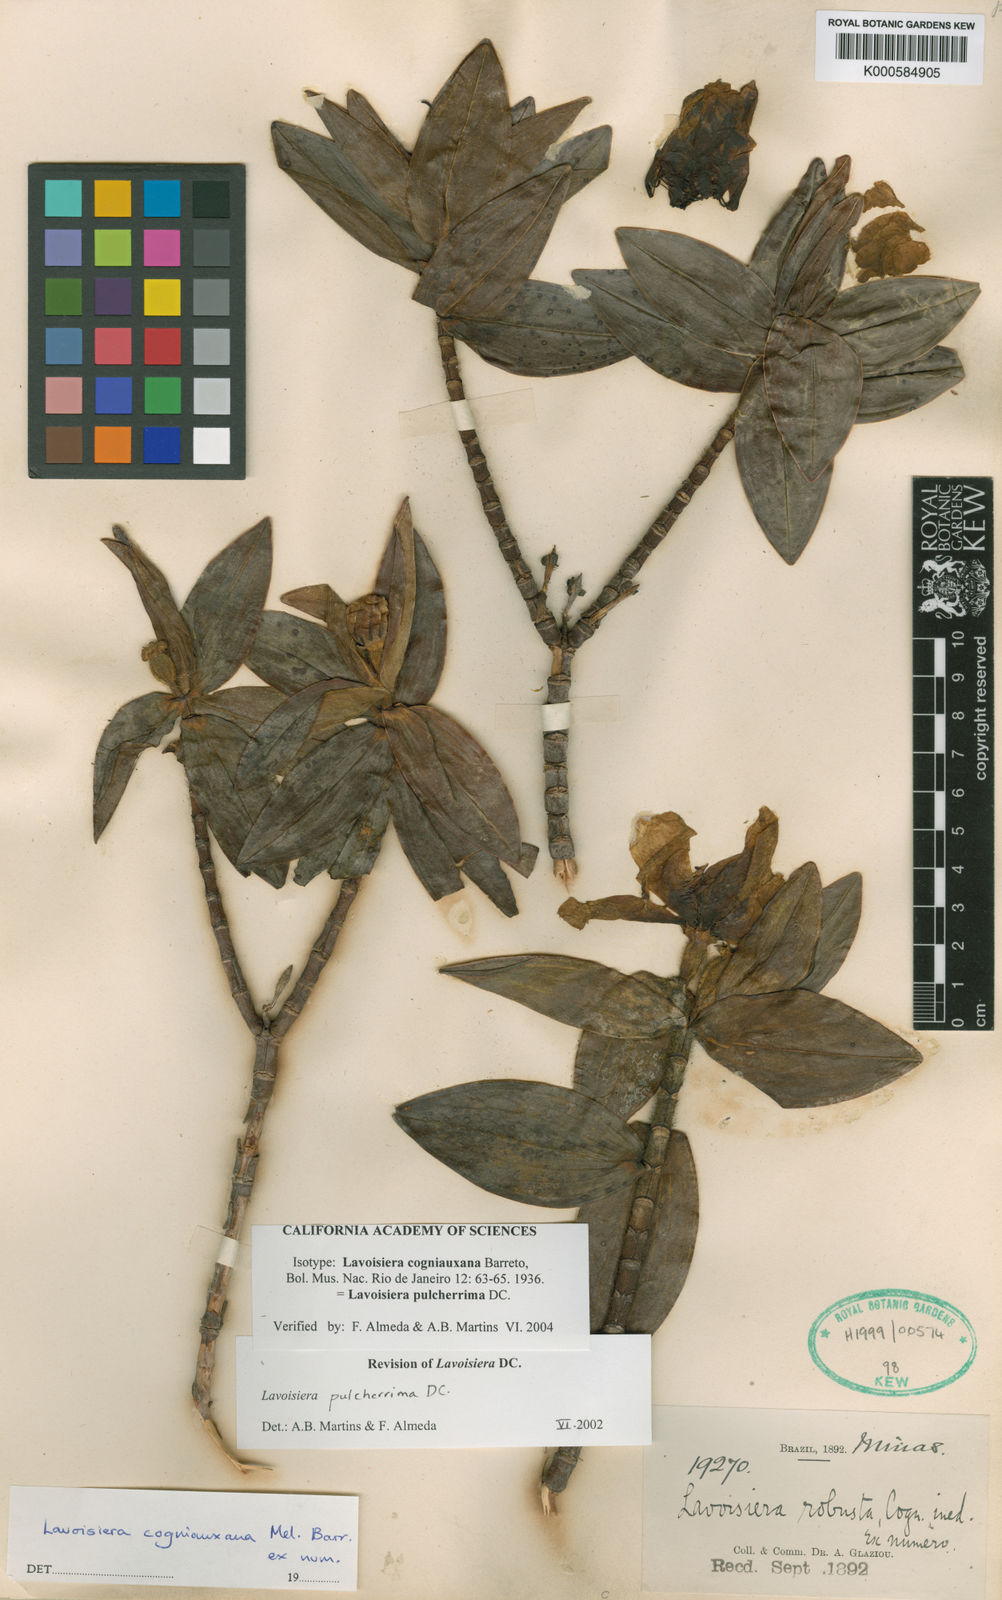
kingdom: Plantae
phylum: Tracheophyta
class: Magnoliopsida
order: Myrtales
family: Melastomataceae
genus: Microlicia
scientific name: Microlicia pulcherrima
